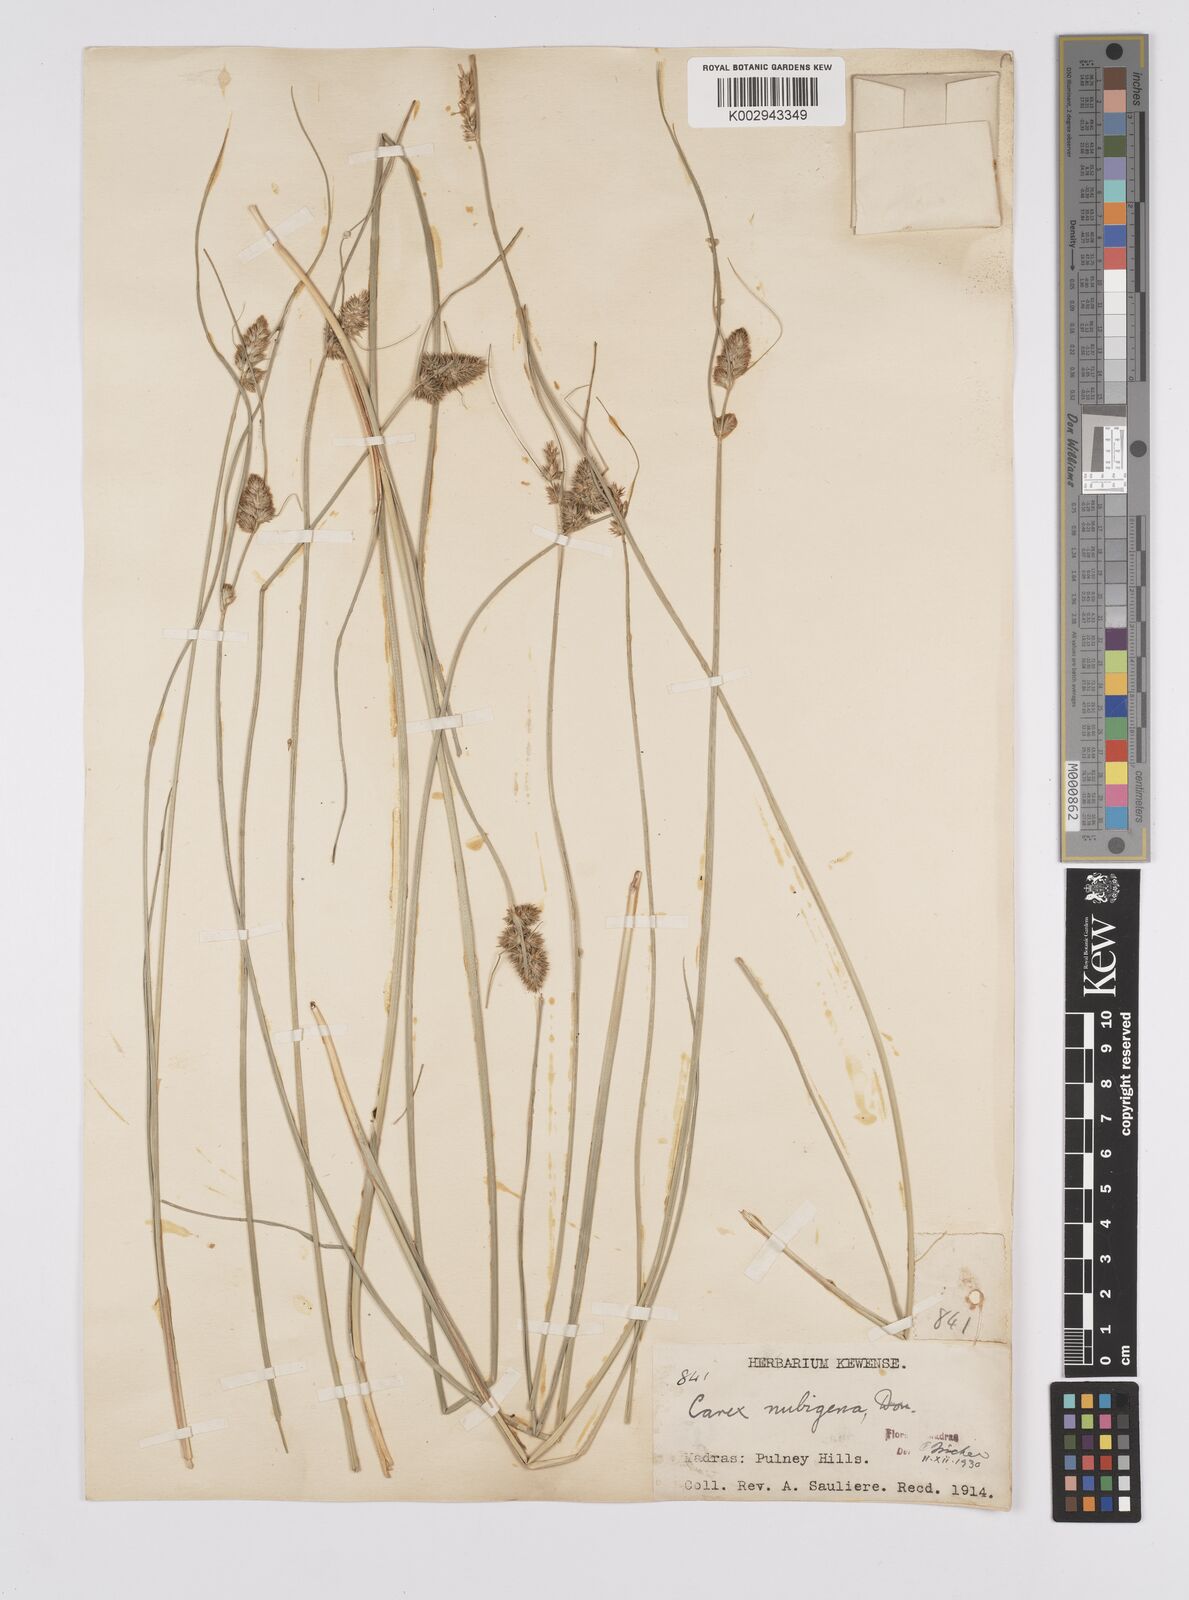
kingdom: Plantae
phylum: Tracheophyta
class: Liliopsida
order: Poales
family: Cyperaceae
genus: Carex
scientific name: Carex nubigena
